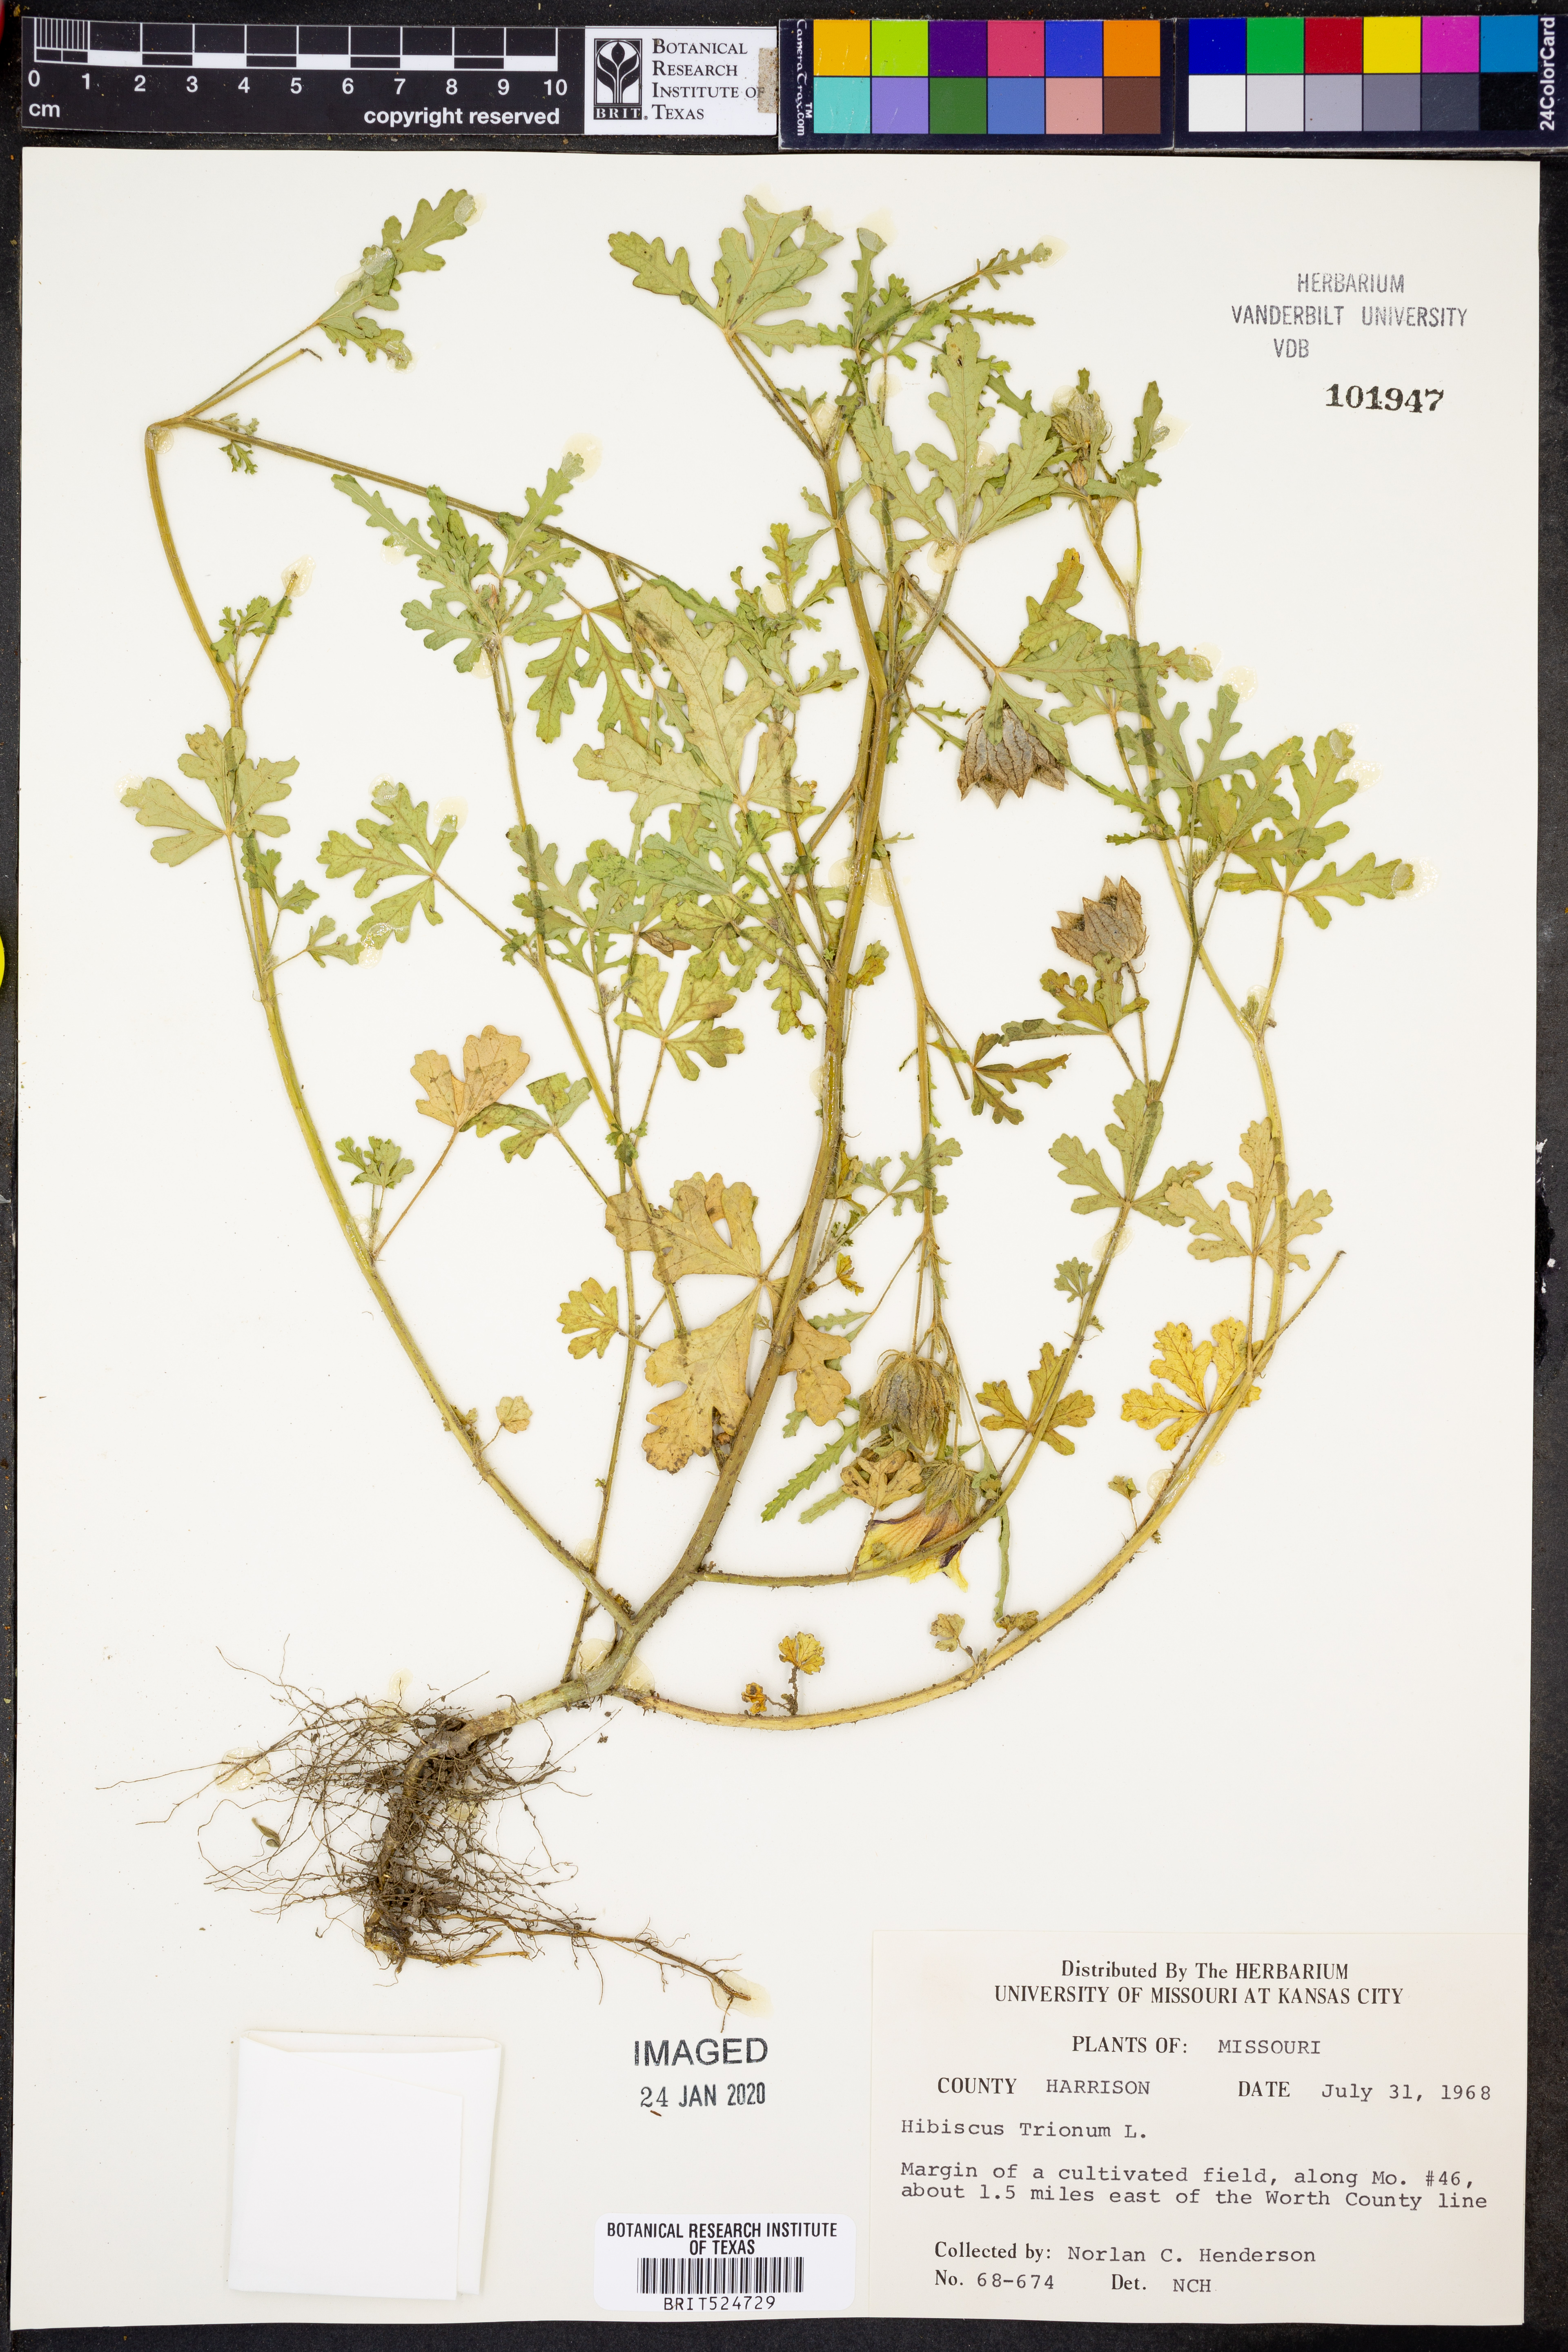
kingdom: Plantae
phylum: Tracheophyta
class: Magnoliopsida
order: Malvales
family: Malvaceae
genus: Hibiscus
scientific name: Hibiscus trionum
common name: Bladder ketmia
